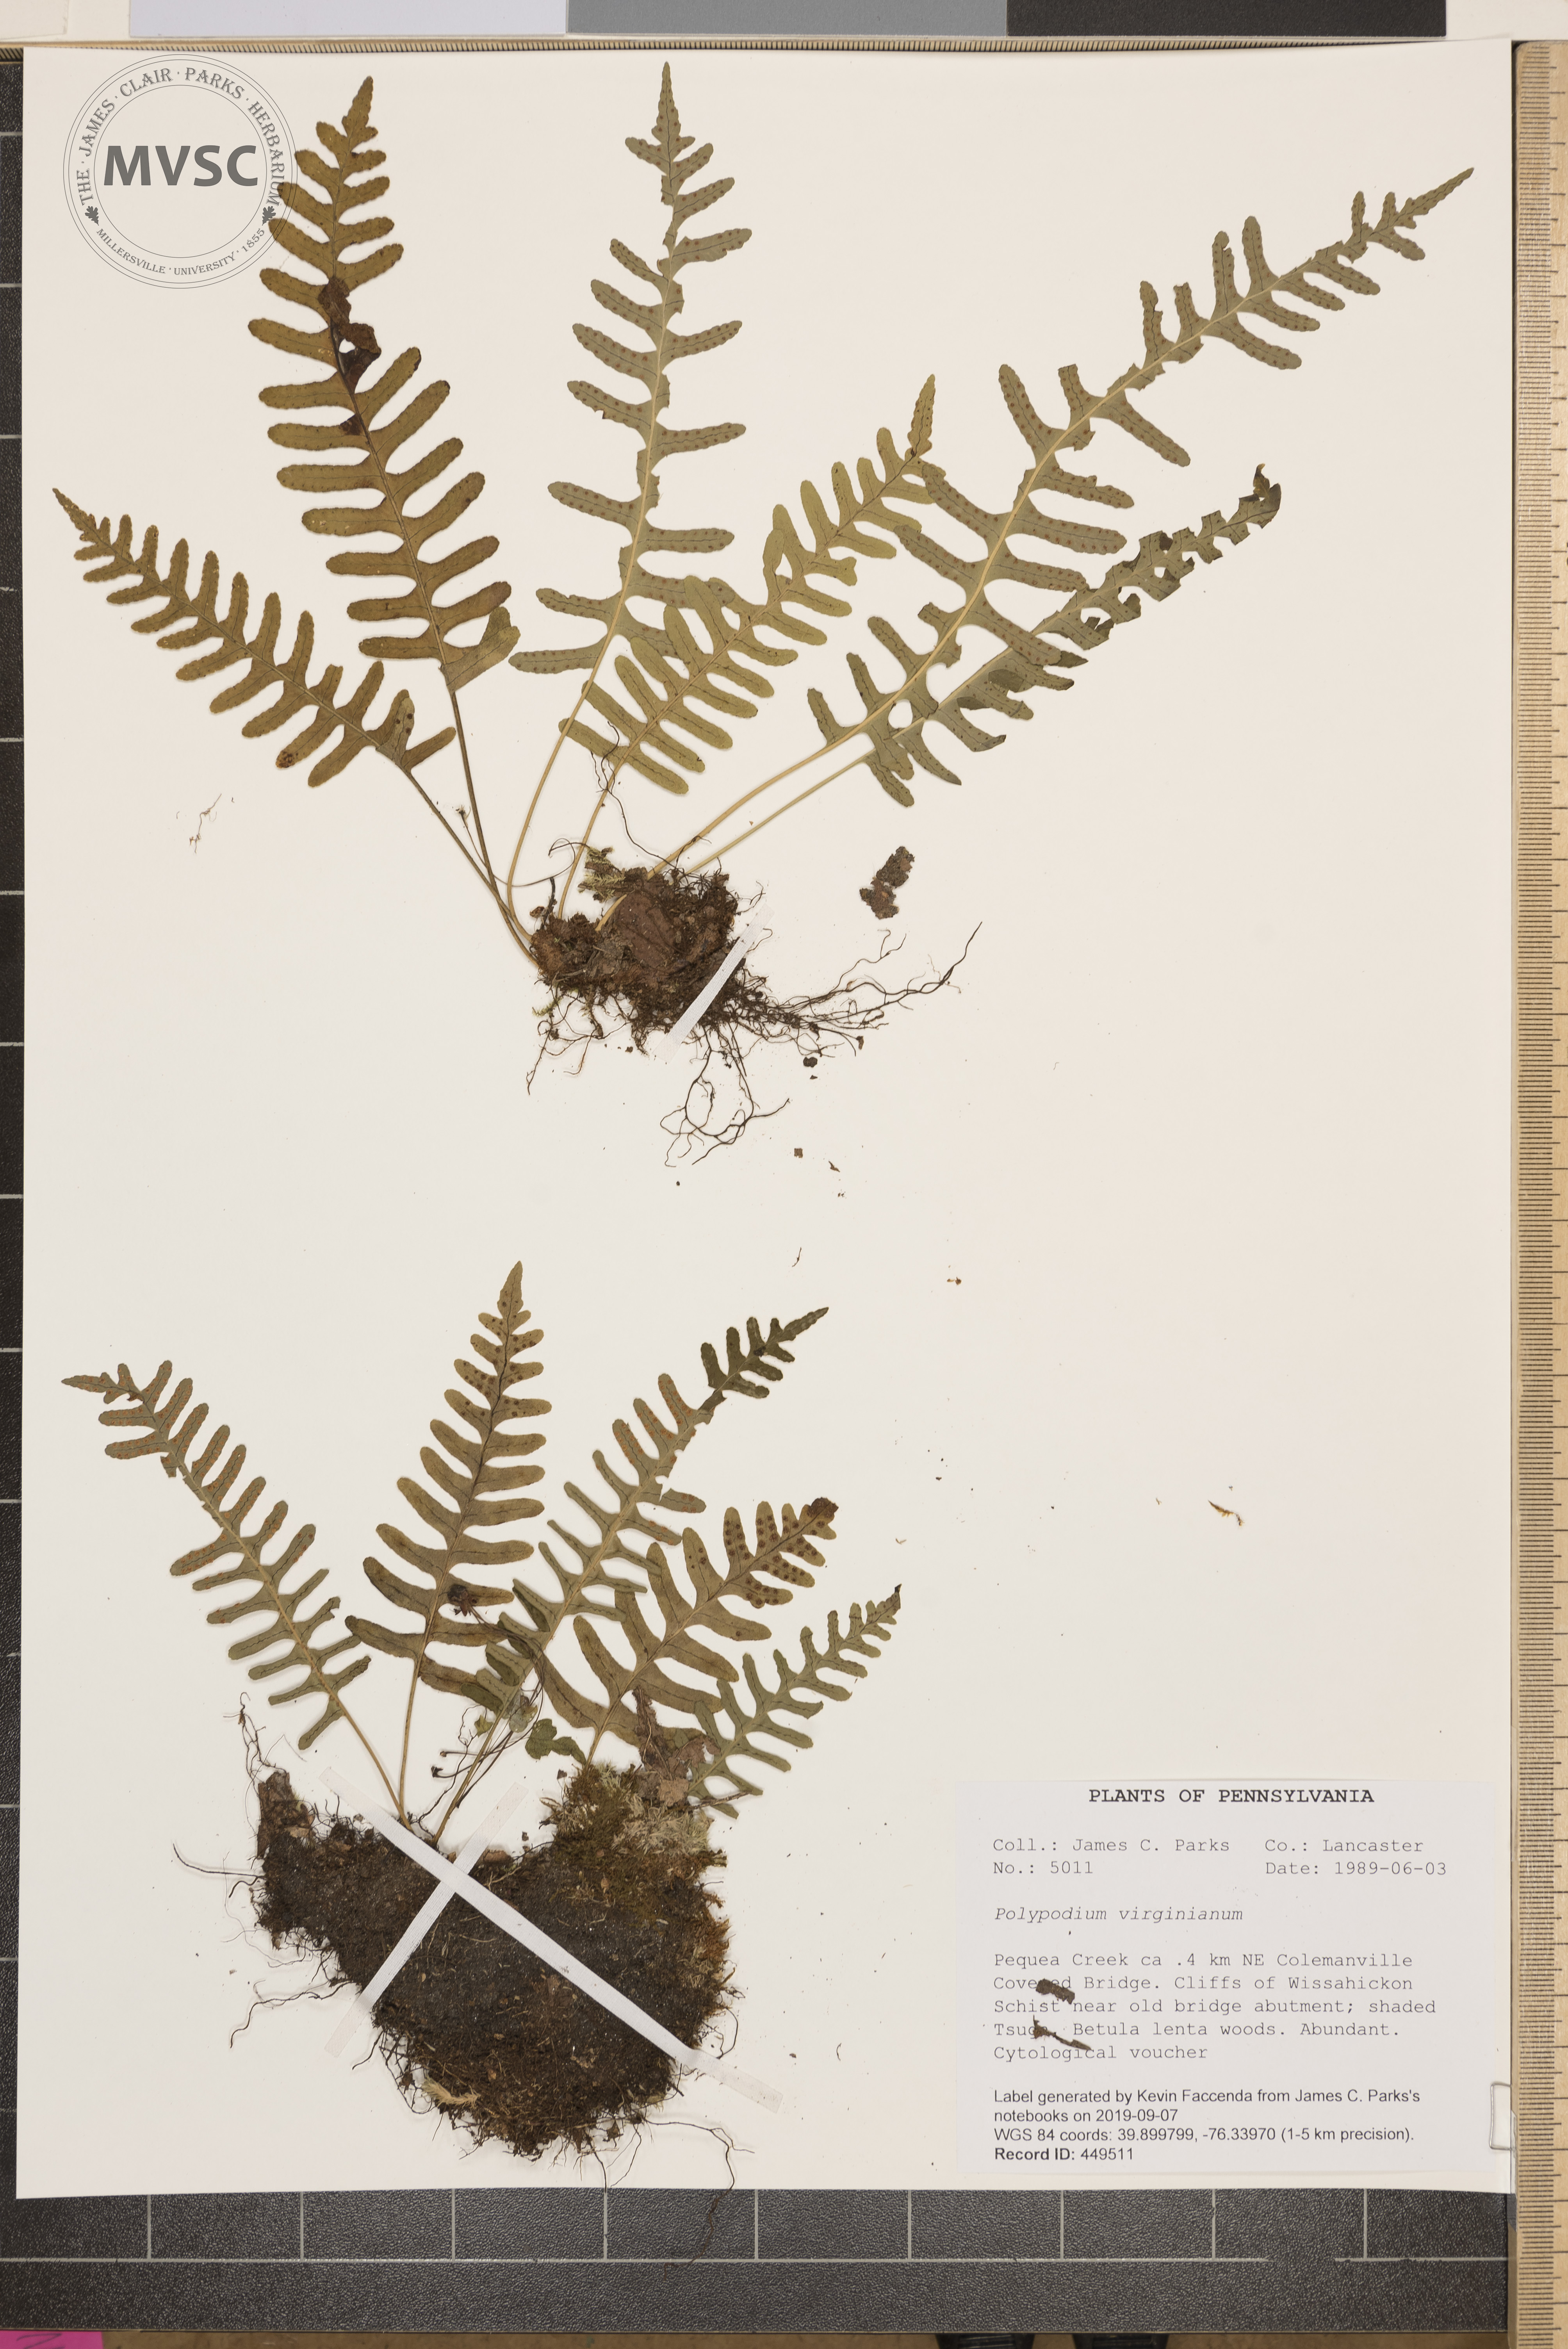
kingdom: Plantae
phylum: Tracheophyta
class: Polypodiopsida
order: Polypodiales
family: Polypodiaceae
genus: Polypodium
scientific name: Polypodium virginianum
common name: American wall fern
